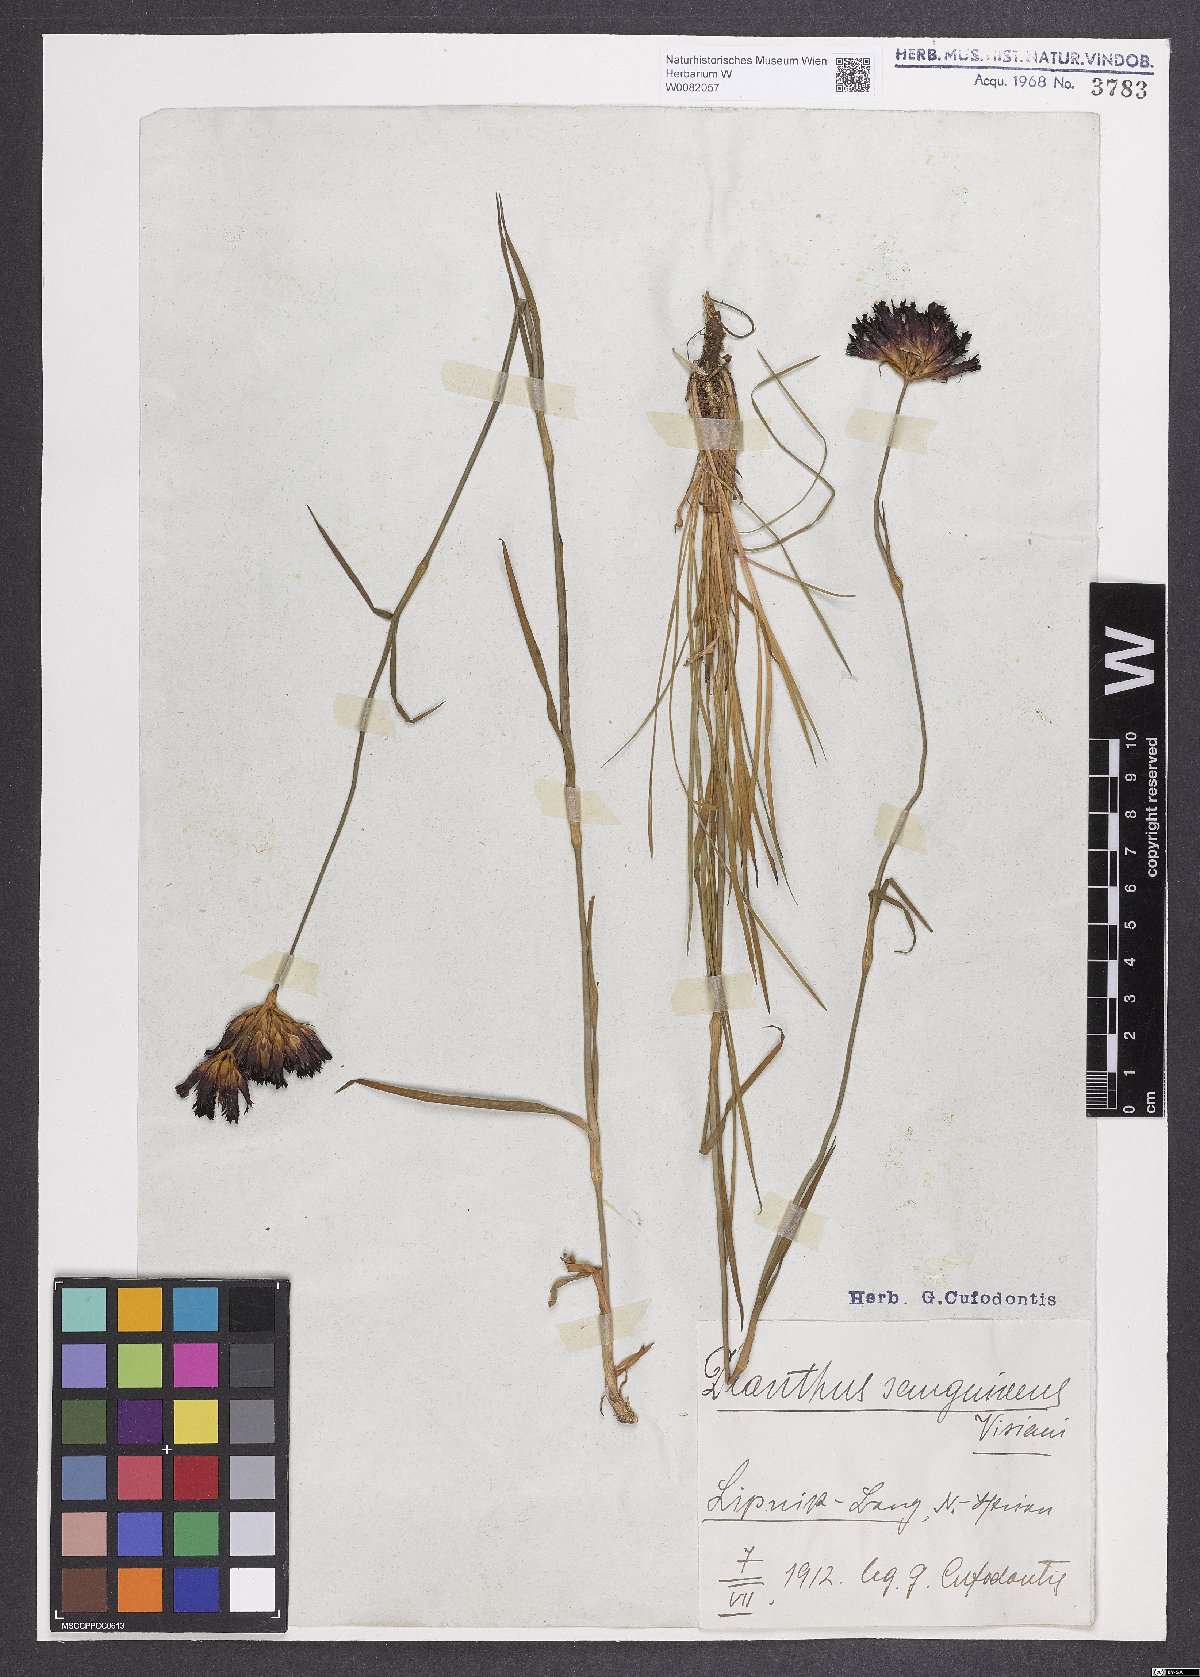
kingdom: Plantae
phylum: Tracheophyta
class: Magnoliopsida
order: Caryophyllales
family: Caryophyllaceae
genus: Dianthus
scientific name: Dianthus carthusianorum
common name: Carthusian pink
